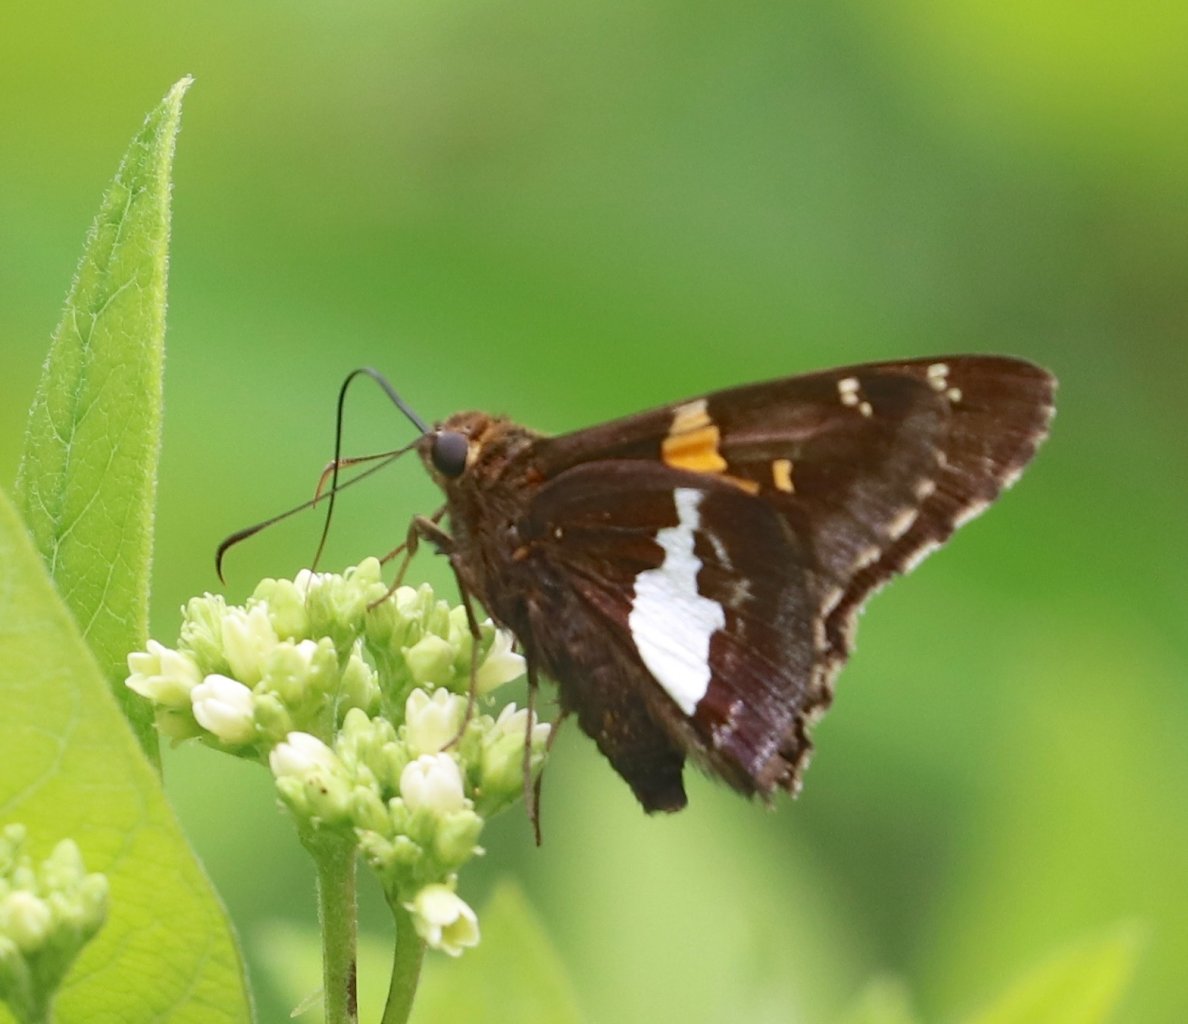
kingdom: Animalia
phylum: Arthropoda
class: Insecta
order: Lepidoptera
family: Hesperiidae
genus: Epargyreus
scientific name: Epargyreus clarus
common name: Silver-spotted Skipper
